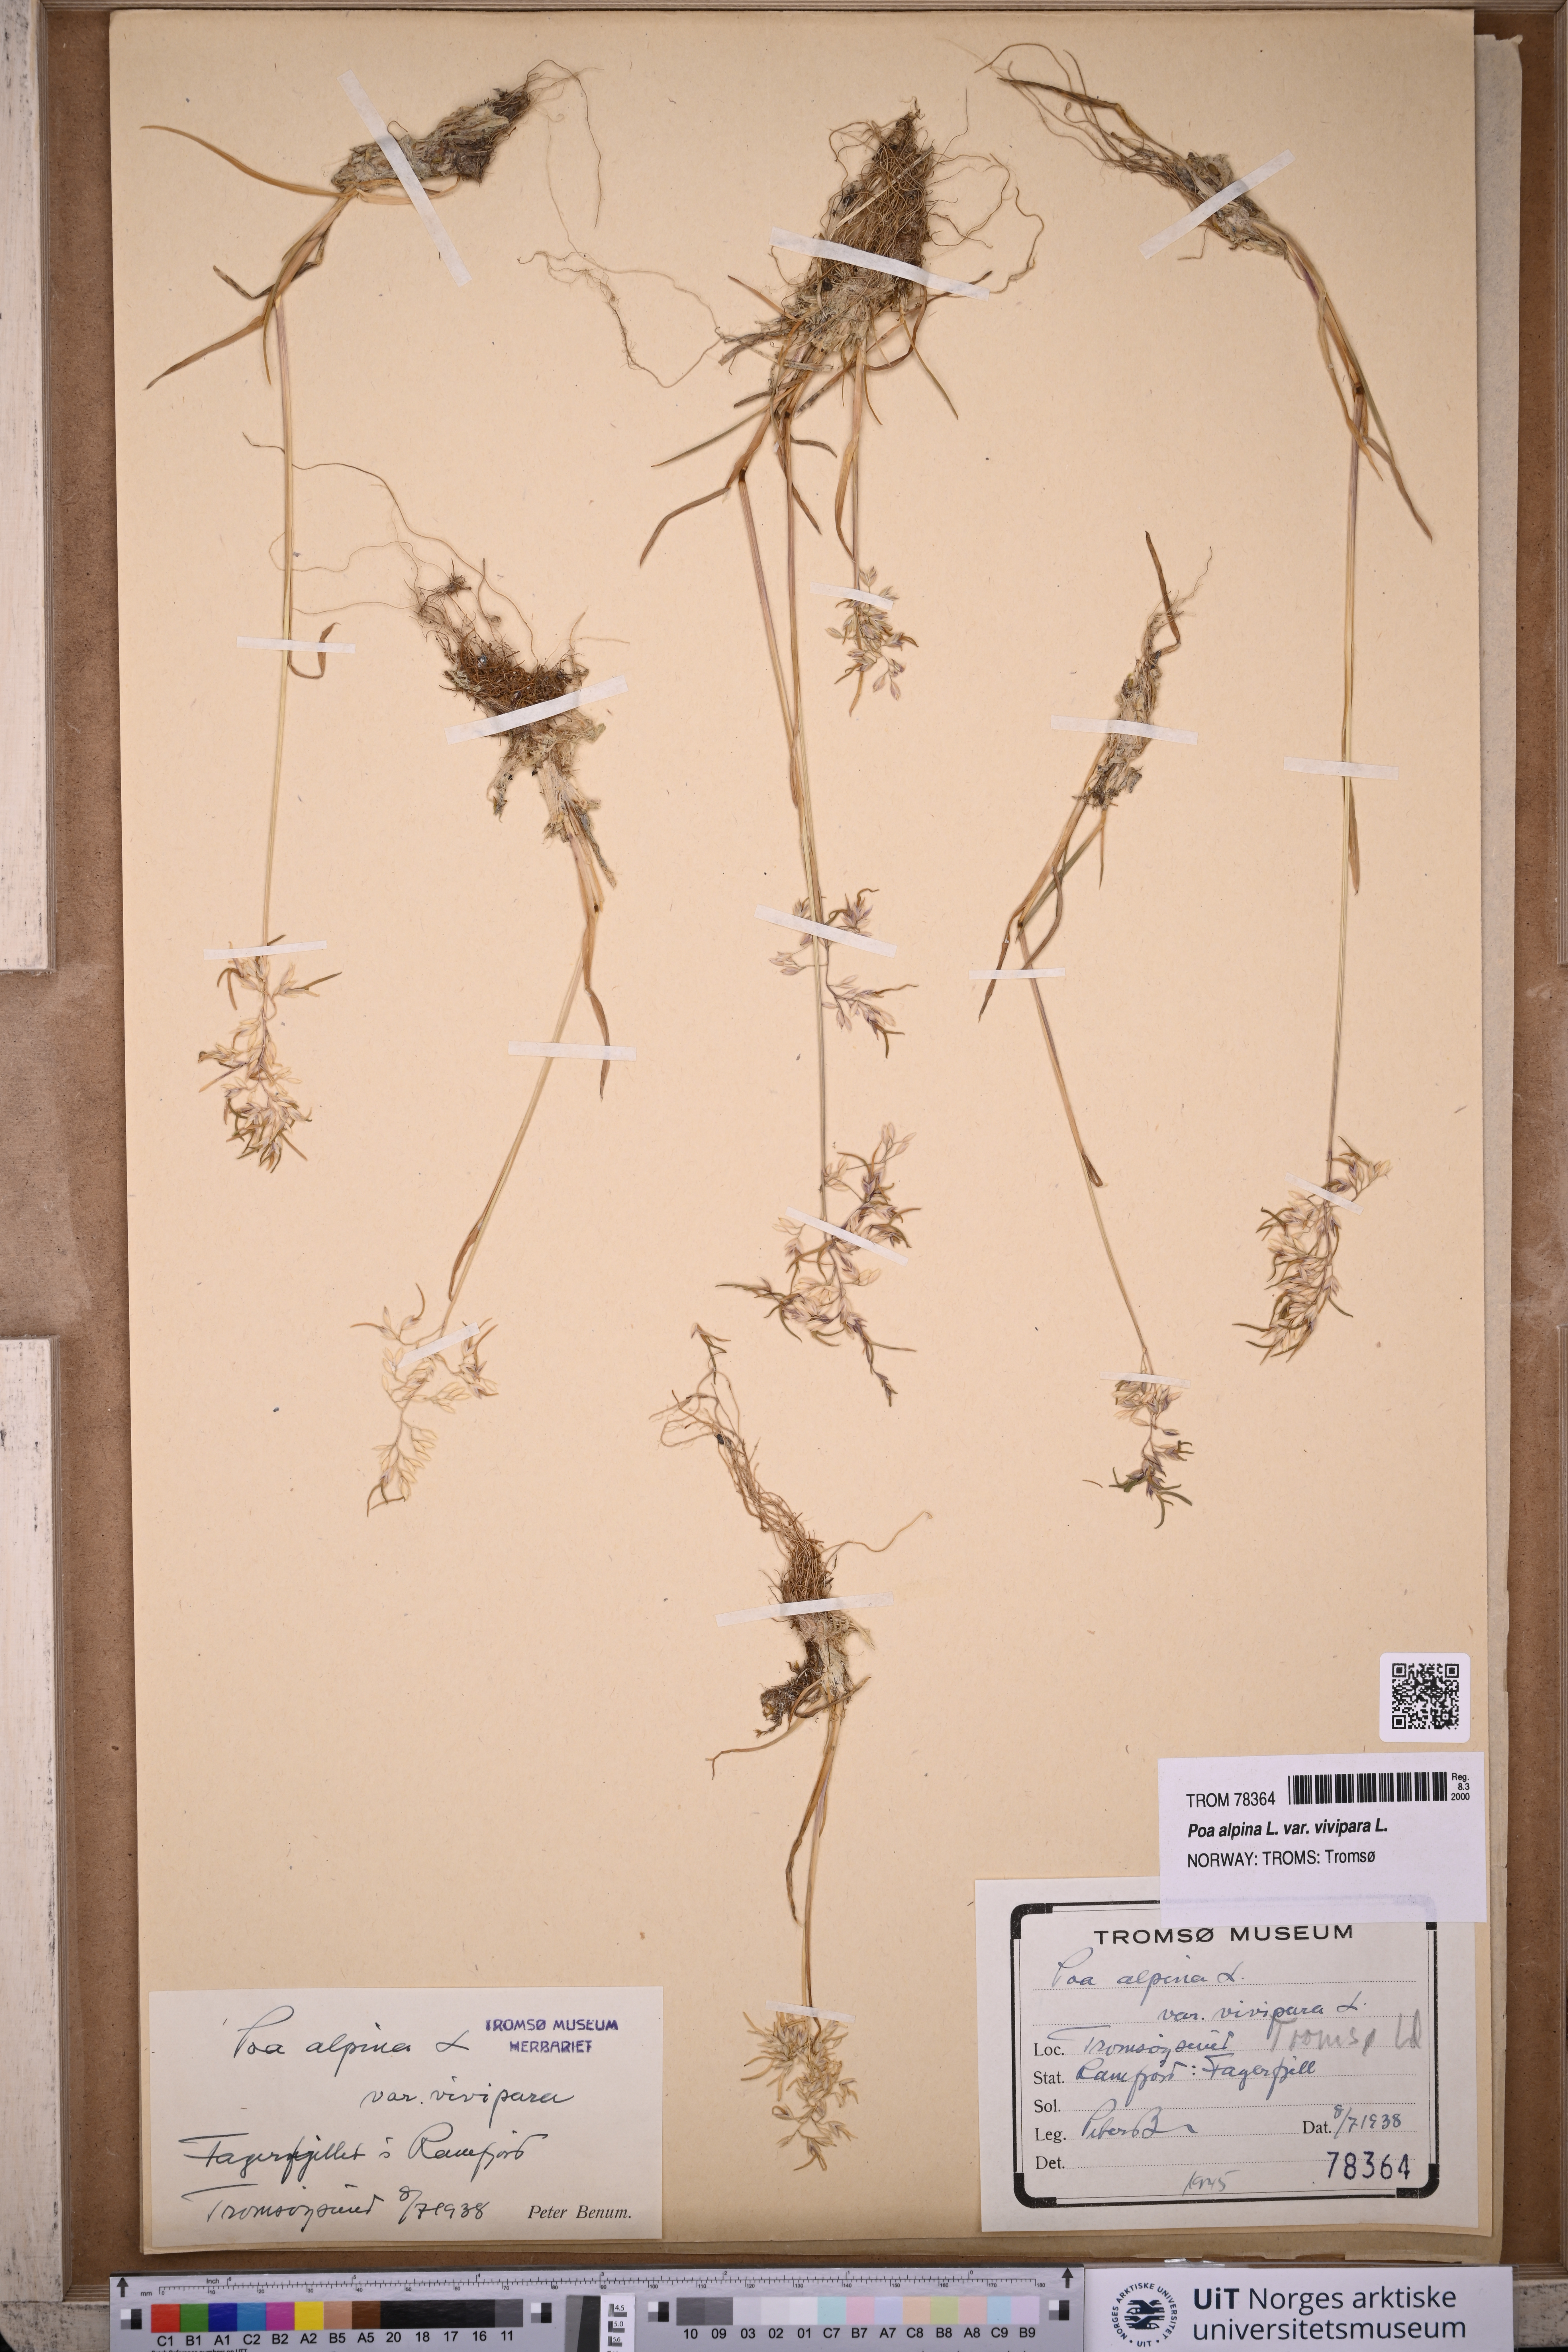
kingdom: Plantae
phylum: Tracheophyta
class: Liliopsida
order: Poales
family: Poaceae
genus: Poa
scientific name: Poa alpina
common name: Alpine bluegrass
